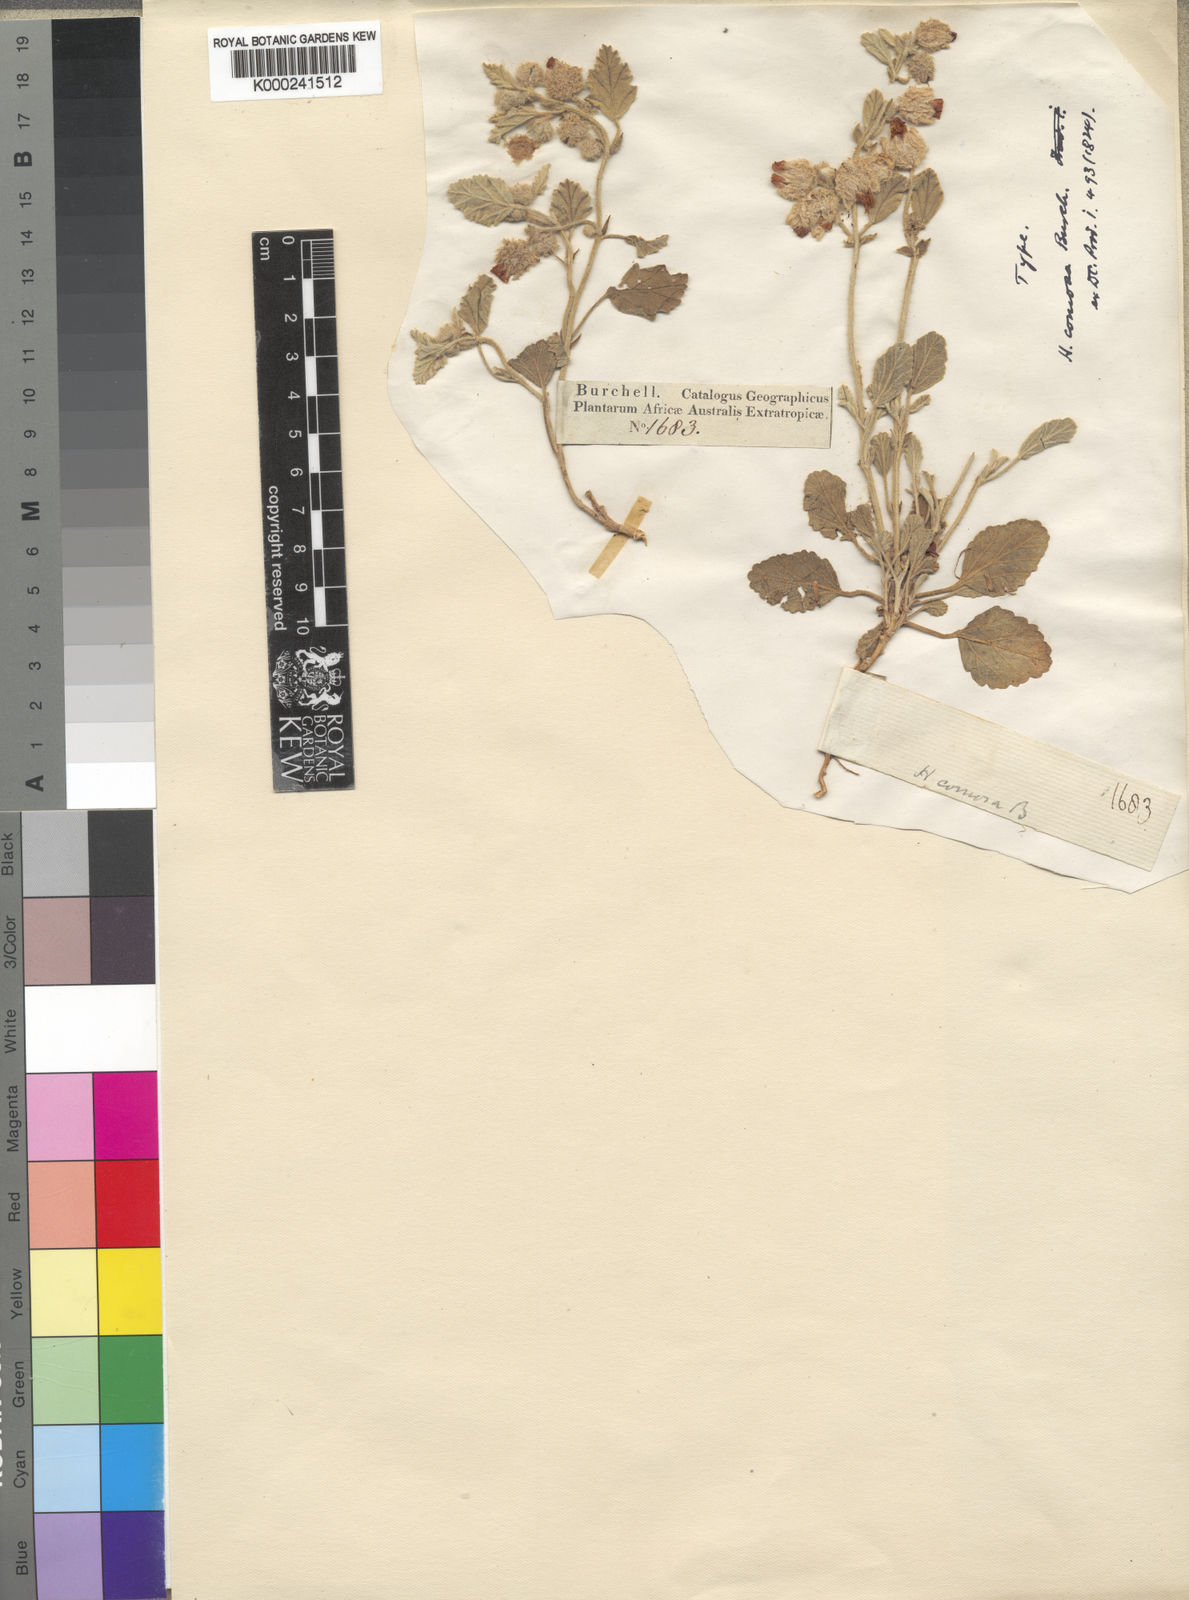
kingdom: Plantae
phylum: Tracheophyta
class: Magnoliopsida
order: Malvales
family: Malvaceae
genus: Hermannia
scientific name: Hermannia comosa
